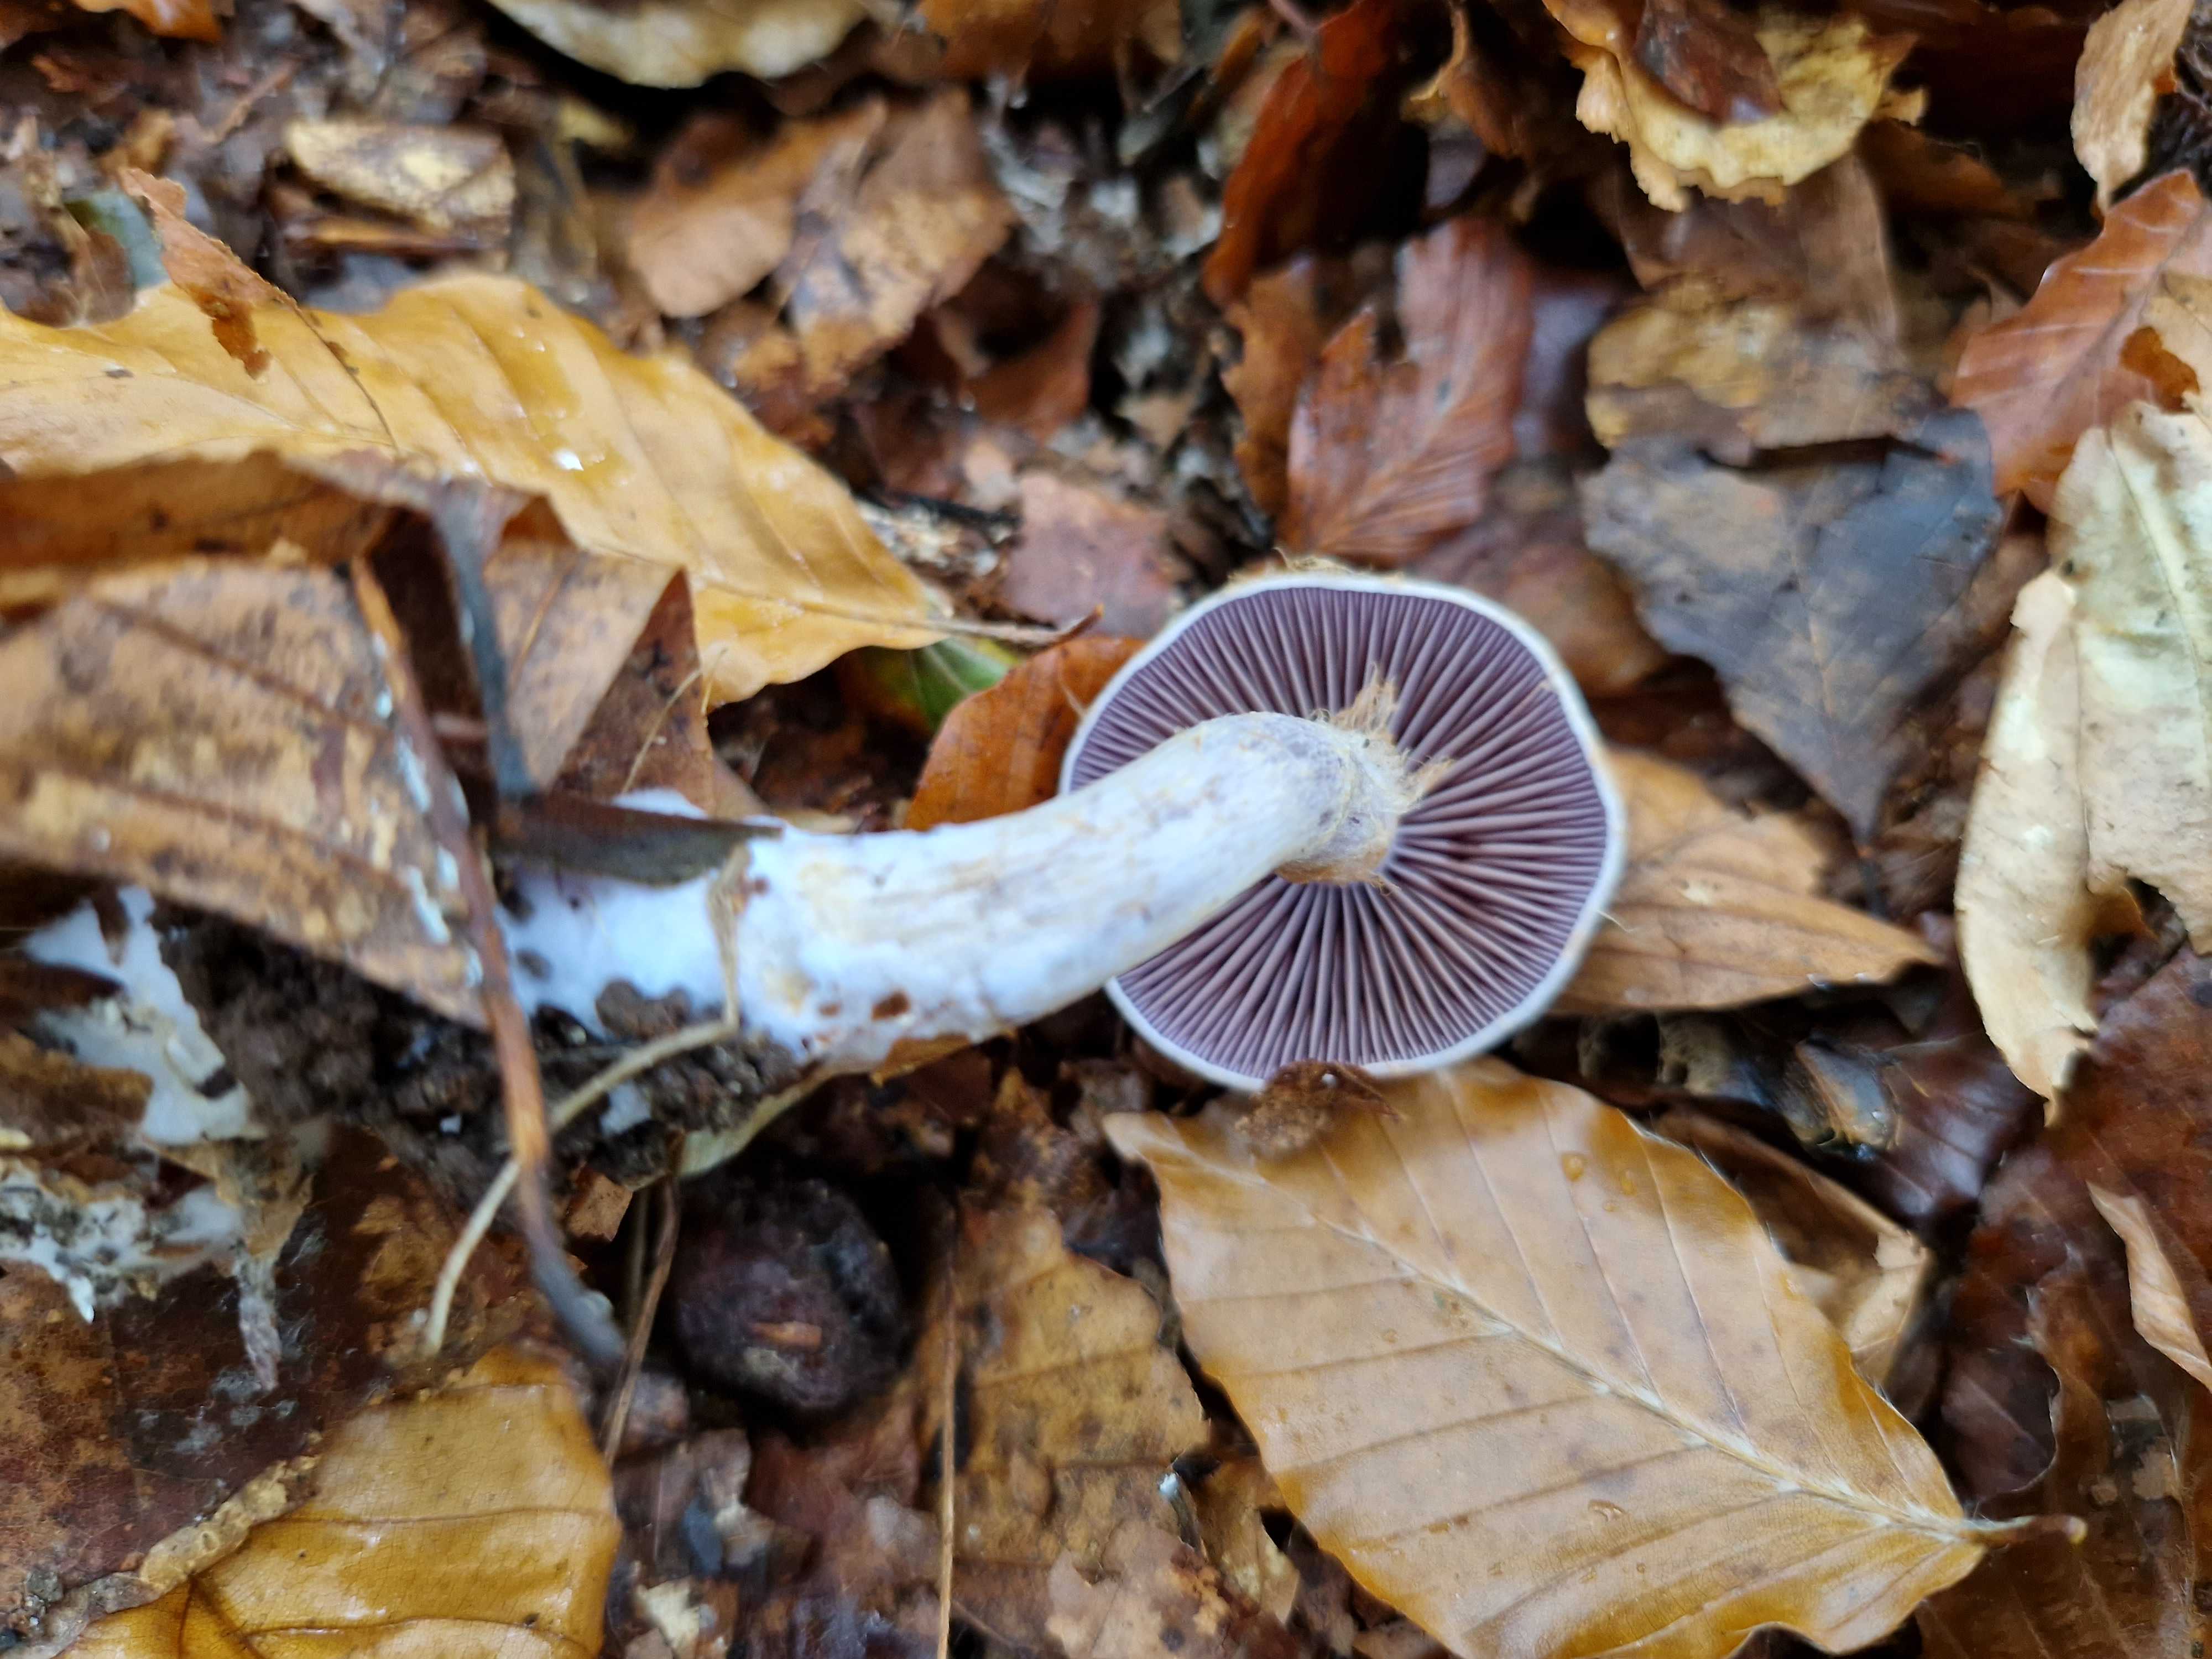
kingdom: Fungi
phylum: Basidiomycota
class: Agaricomycetes
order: Agaricales
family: Cortinariaceae
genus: Cortinarius
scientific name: Cortinarius
